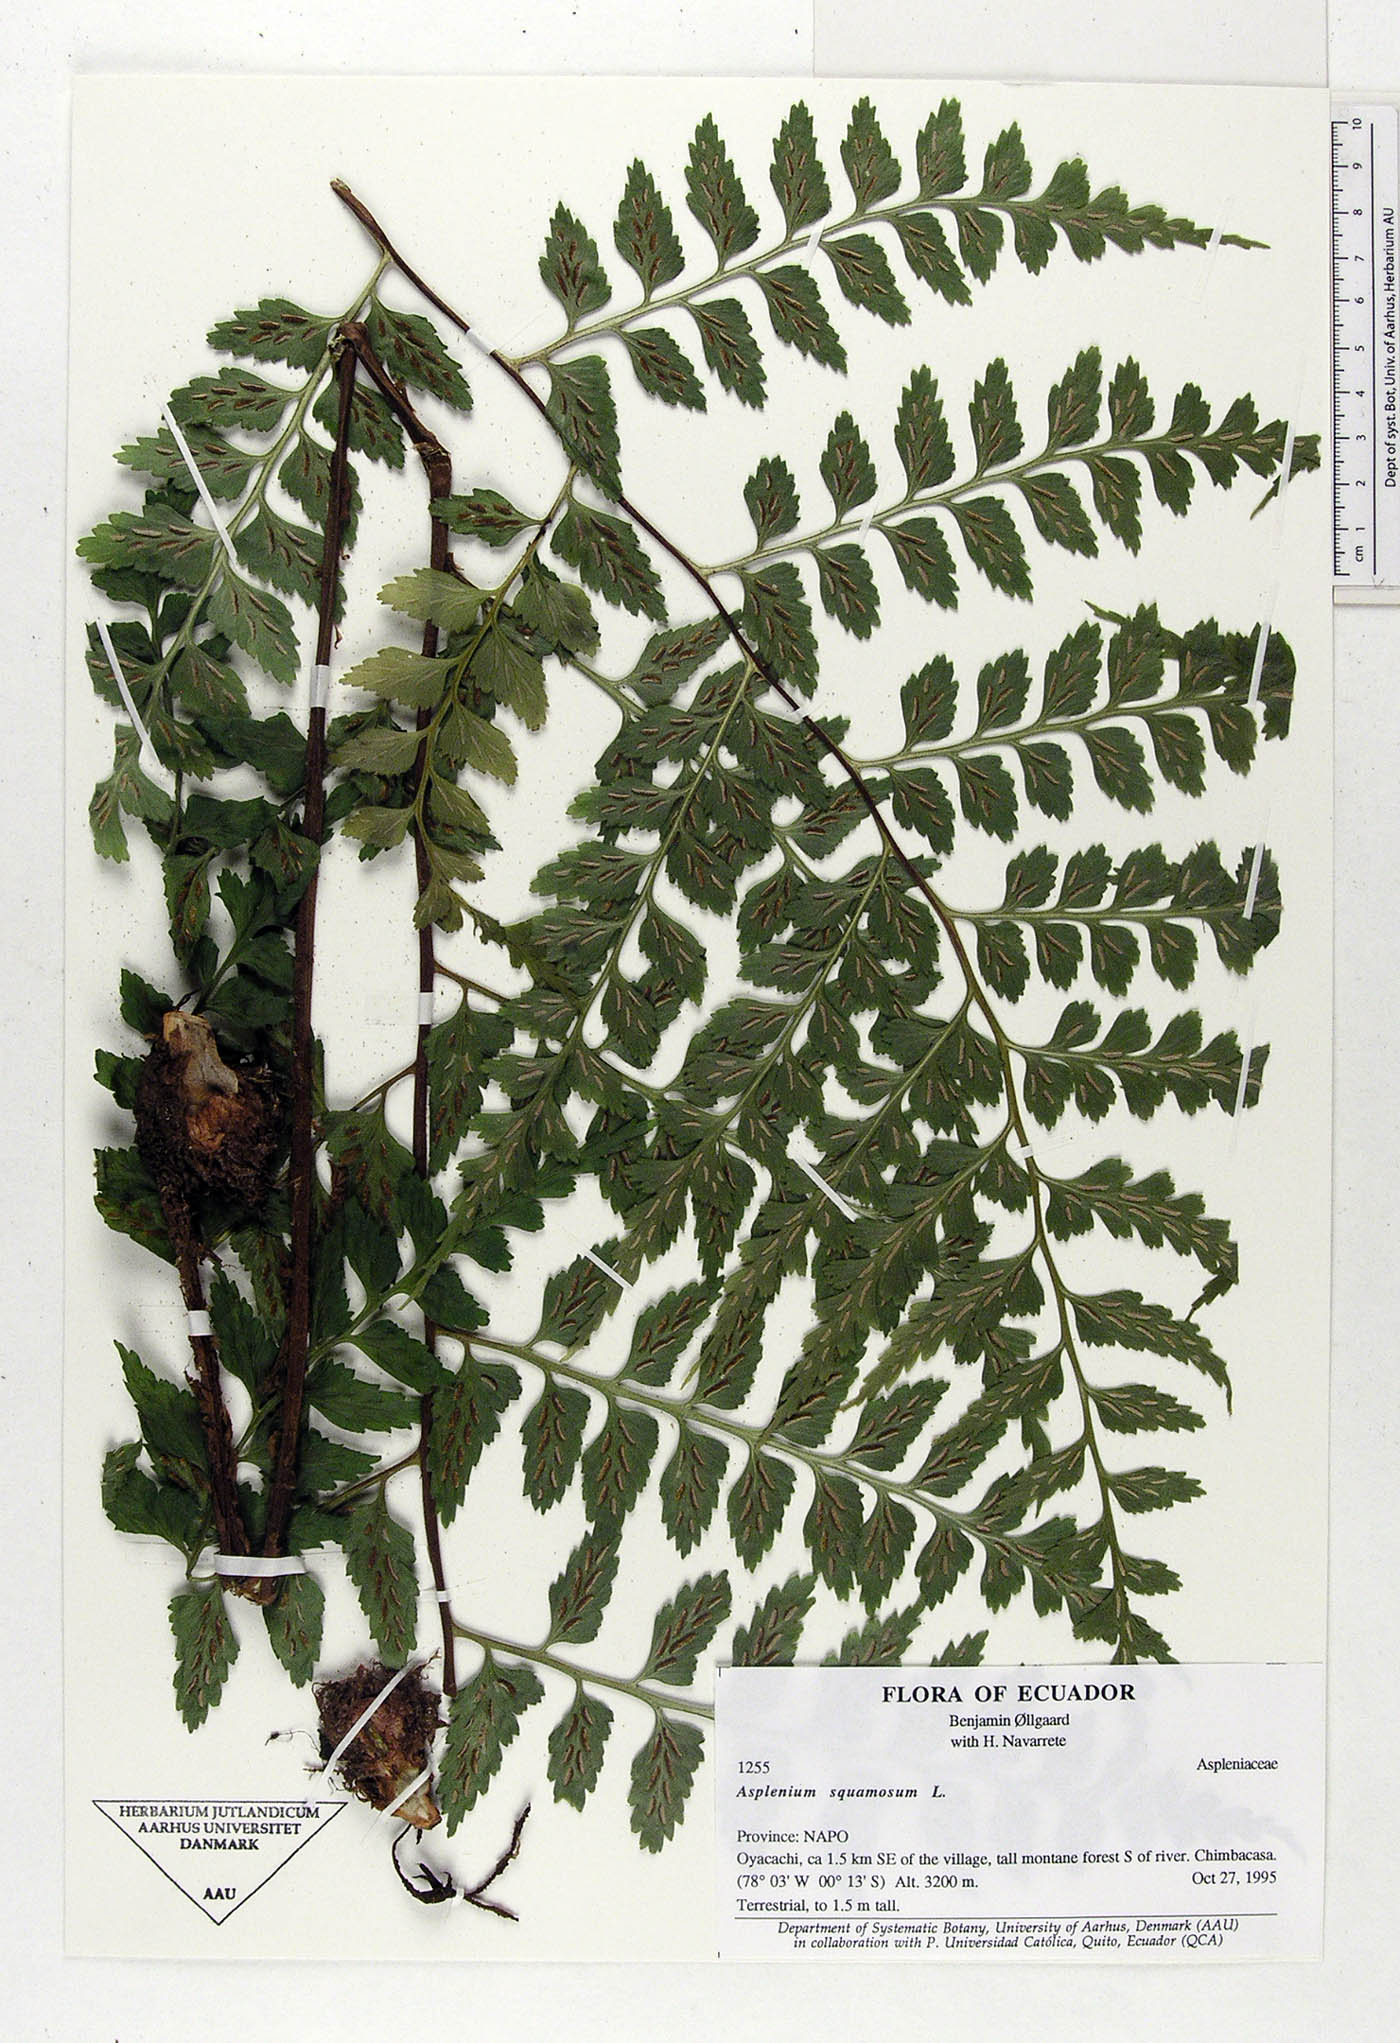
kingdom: Plantae
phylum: Tracheophyta
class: Polypodiopsida
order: Polypodiales
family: Aspleniaceae
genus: Asplenium
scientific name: Asplenium squamosum
